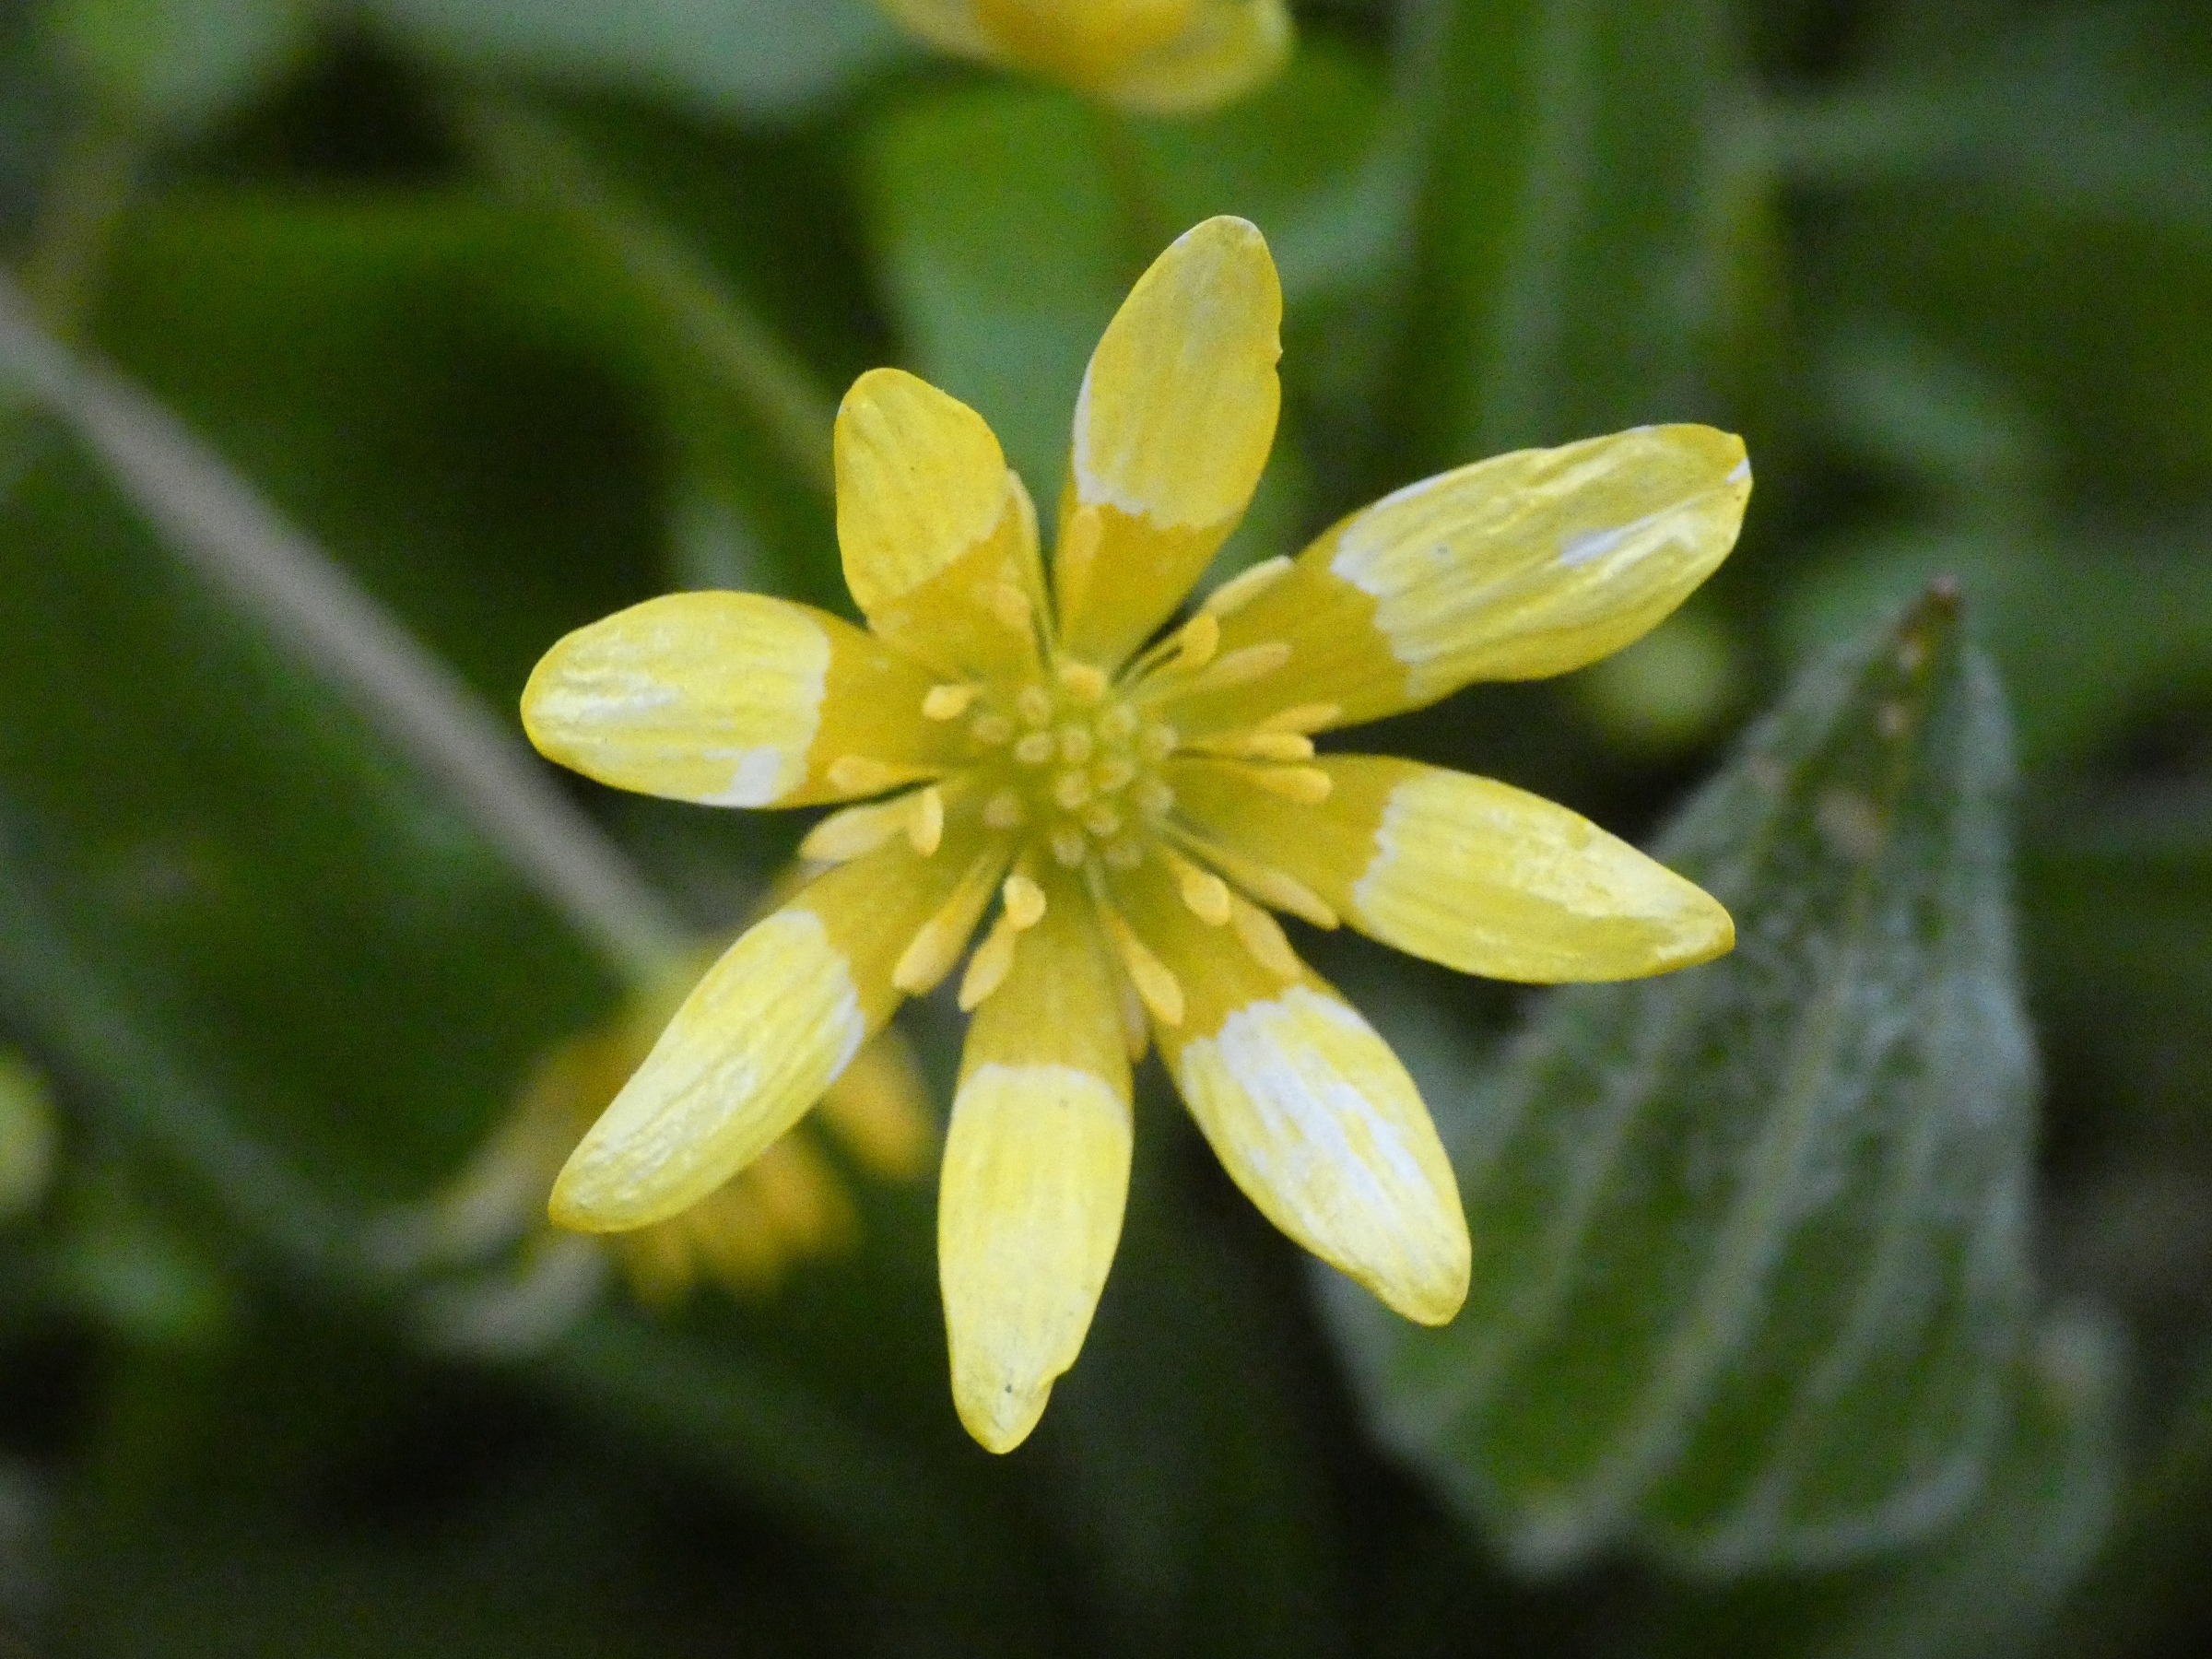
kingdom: Plantae
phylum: Tracheophyta
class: Magnoliopsida
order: Ranunculales
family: Ranunculaceae
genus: Ficaria
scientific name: Ficaria verna
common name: Vorterod
